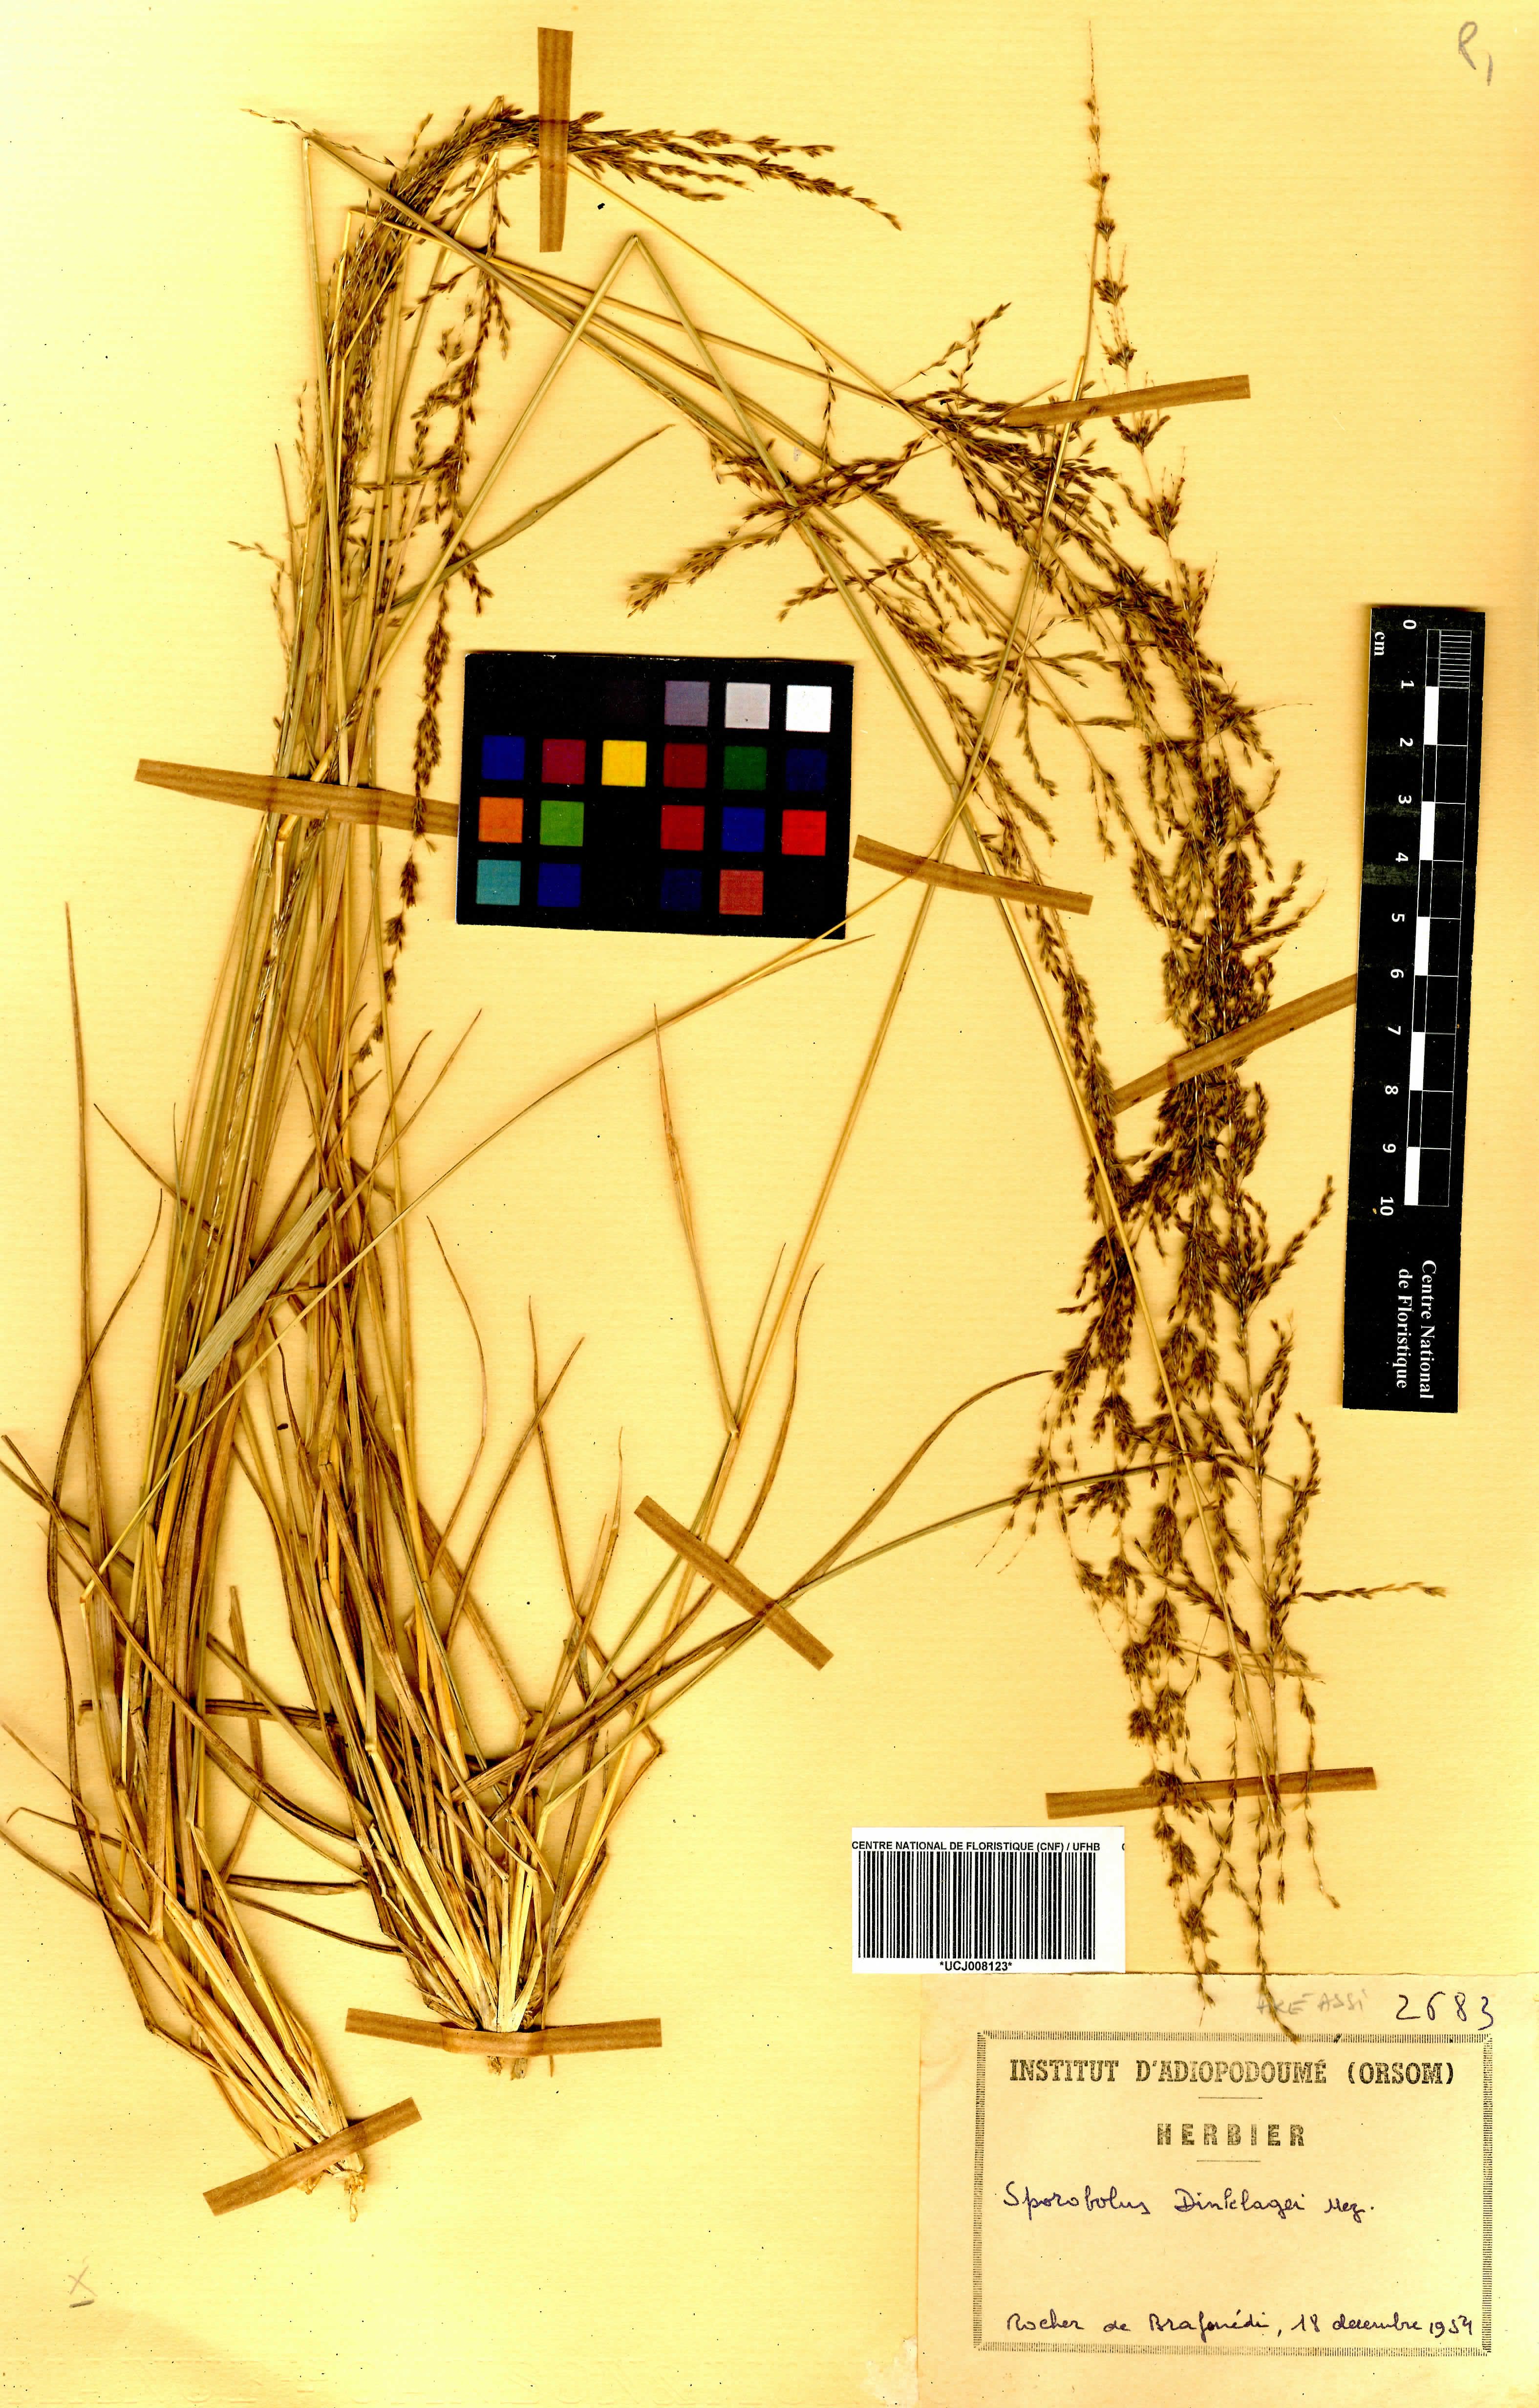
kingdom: Plantae
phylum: Tracheophyta
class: Liliopsida
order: Poales
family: Poaceae
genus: Sporobolus
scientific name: Sporobolus dinklagei
